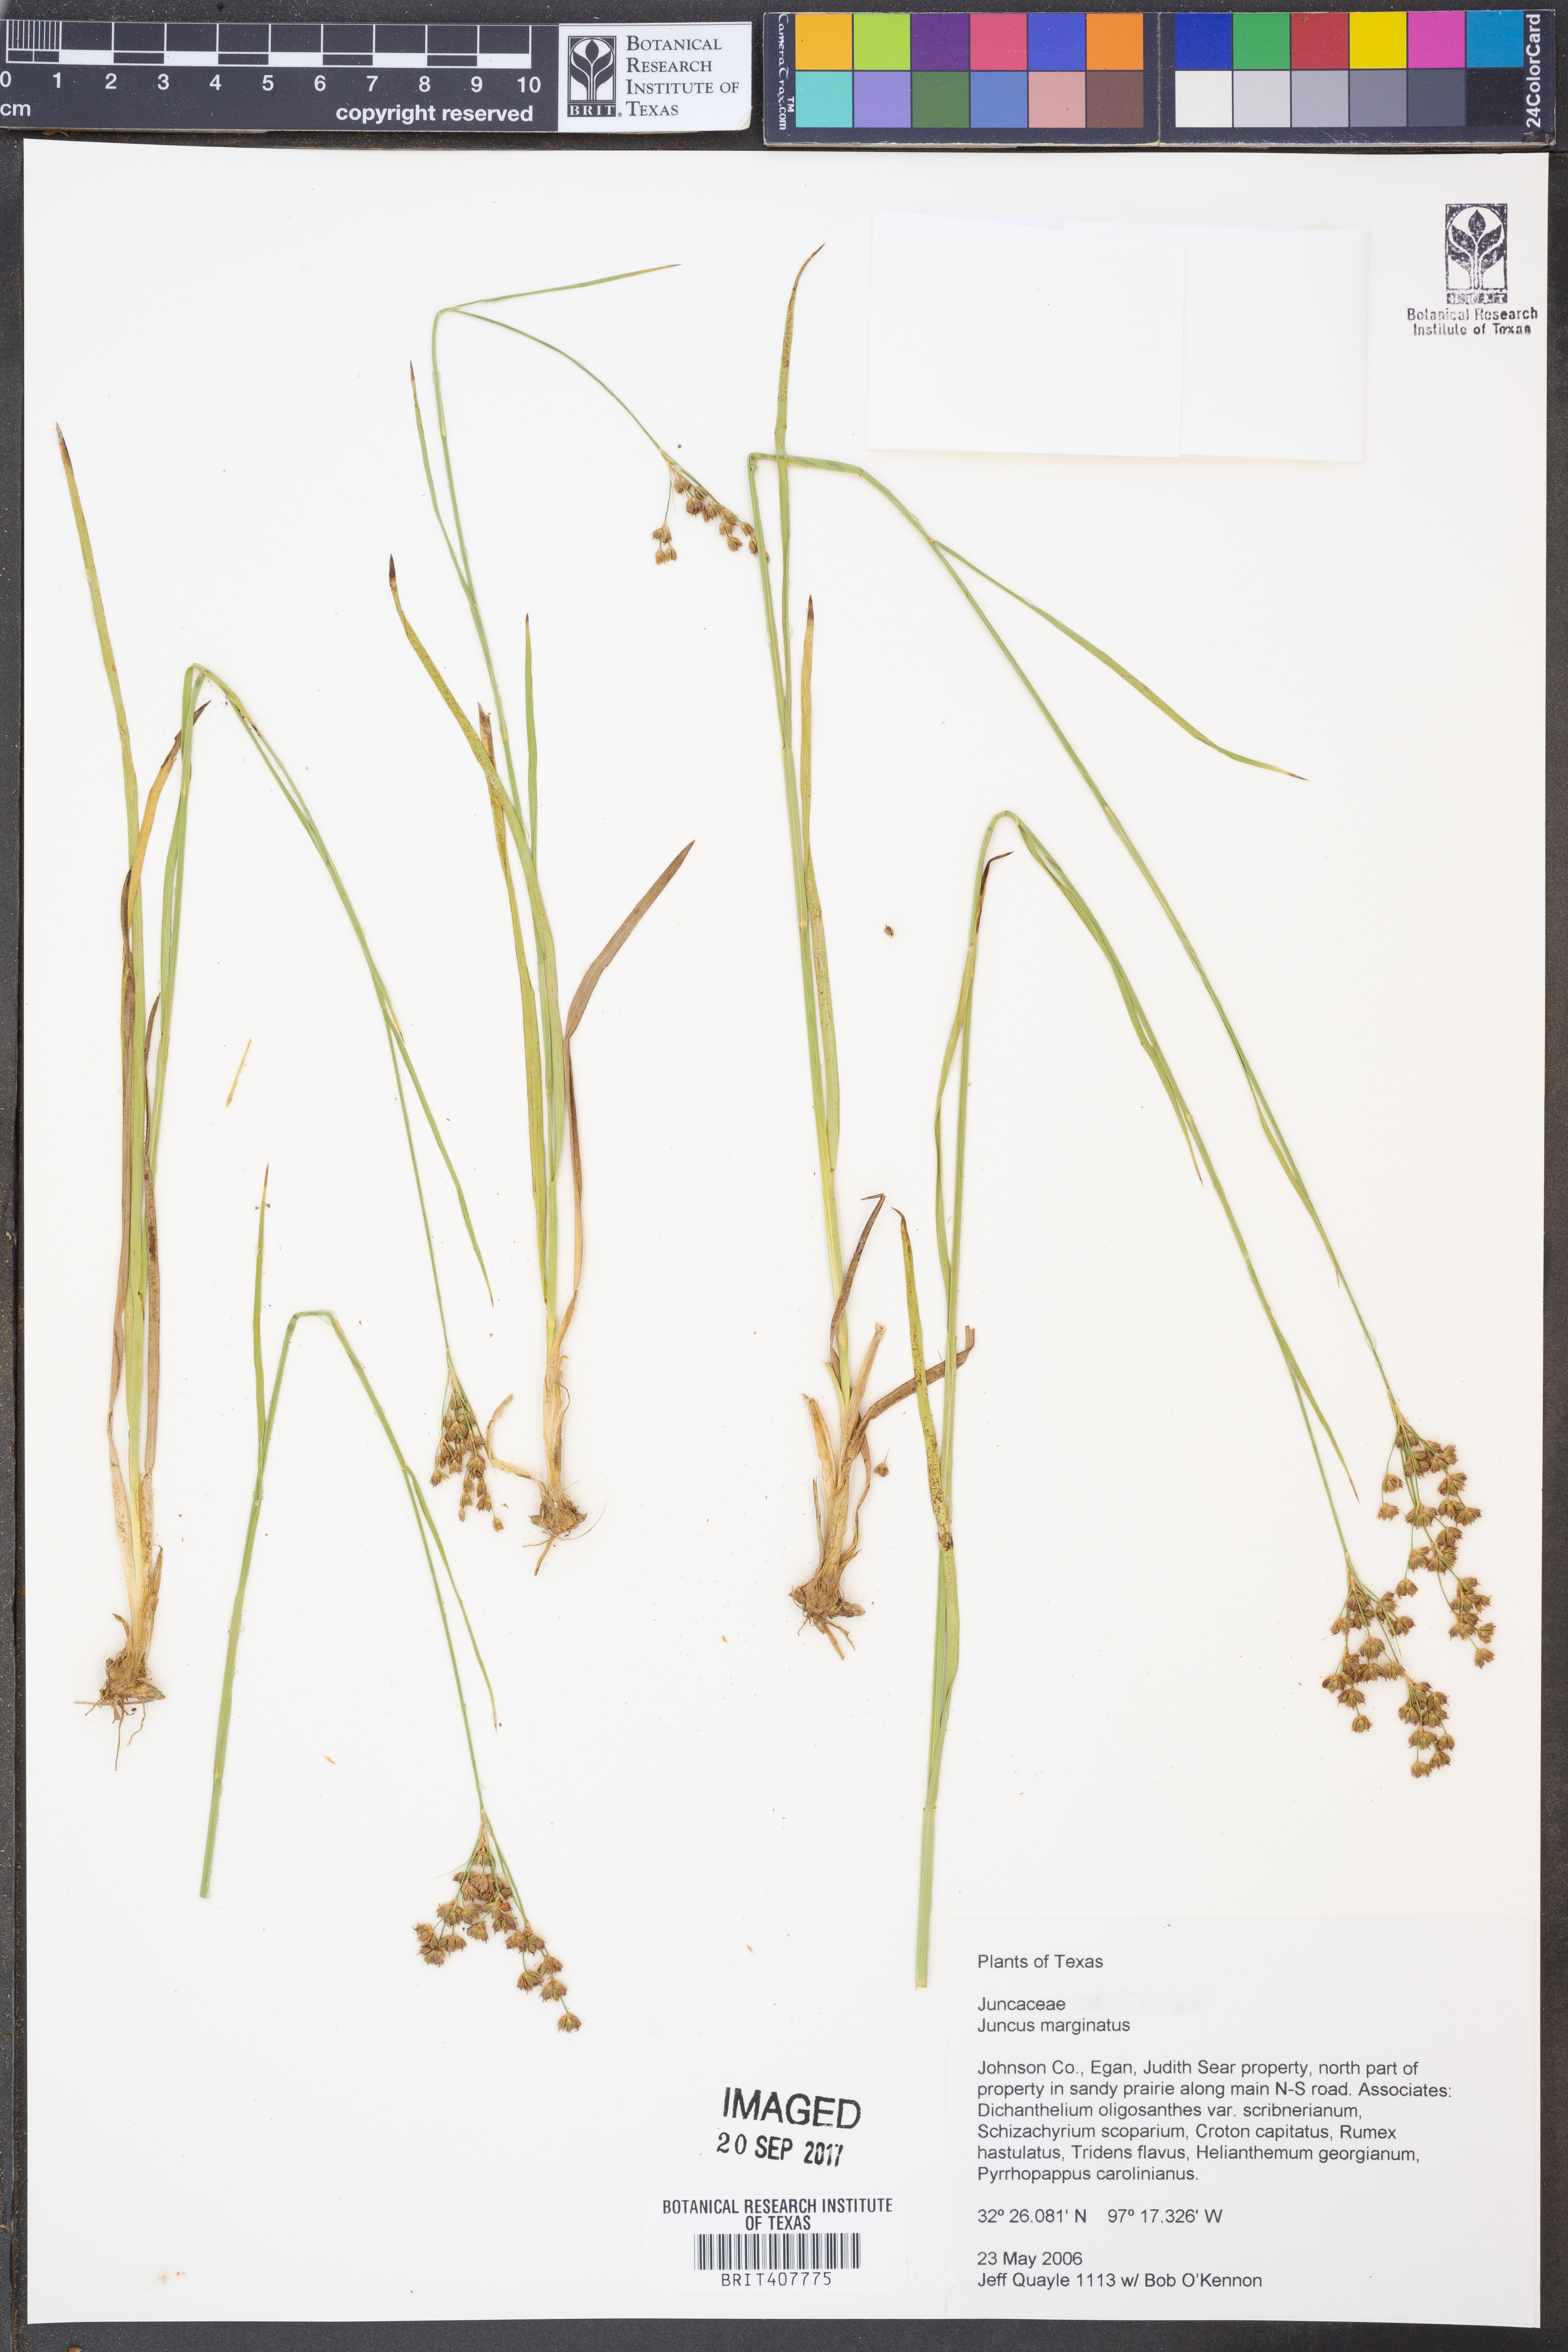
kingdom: Plantae
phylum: Tracheophyta
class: Liliopsida
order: Poales
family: Juncaceae
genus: Juncus
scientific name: Juncus marginatus
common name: Grass-leaf rush
